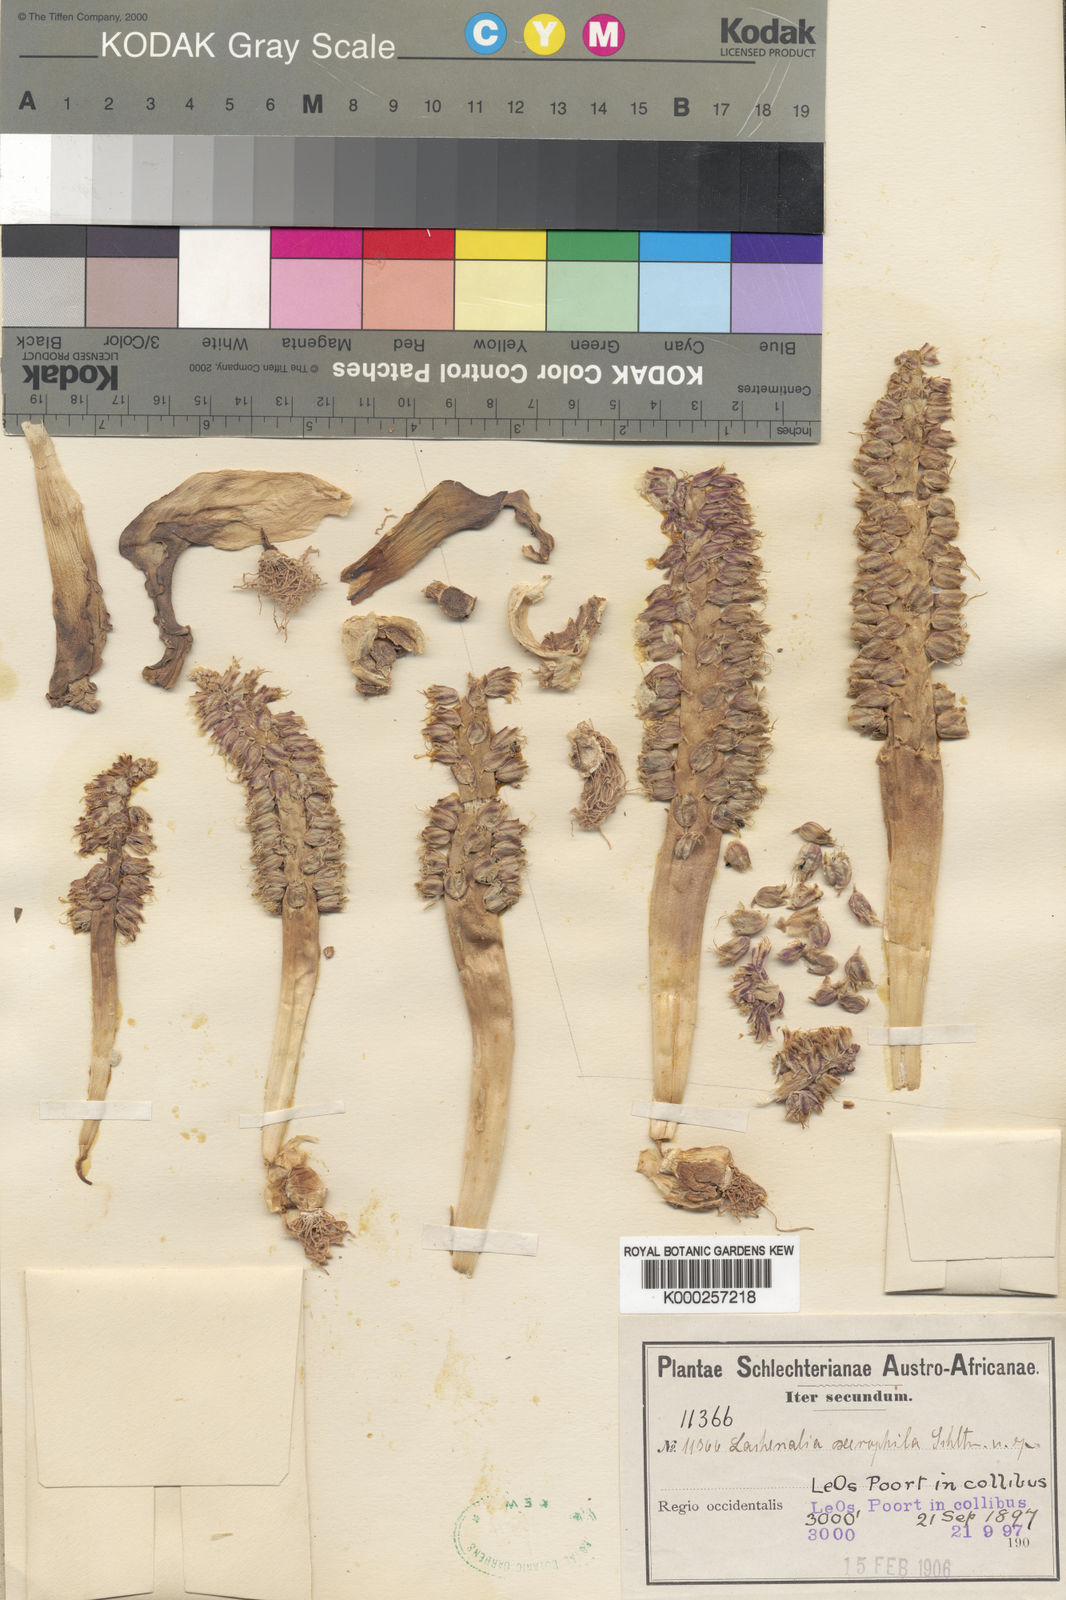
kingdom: Plantae
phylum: Tracheophyta
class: Liliopsida
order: Asparagales
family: Asparagaceae
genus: Lachenalia
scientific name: Lachenalia xerophila
